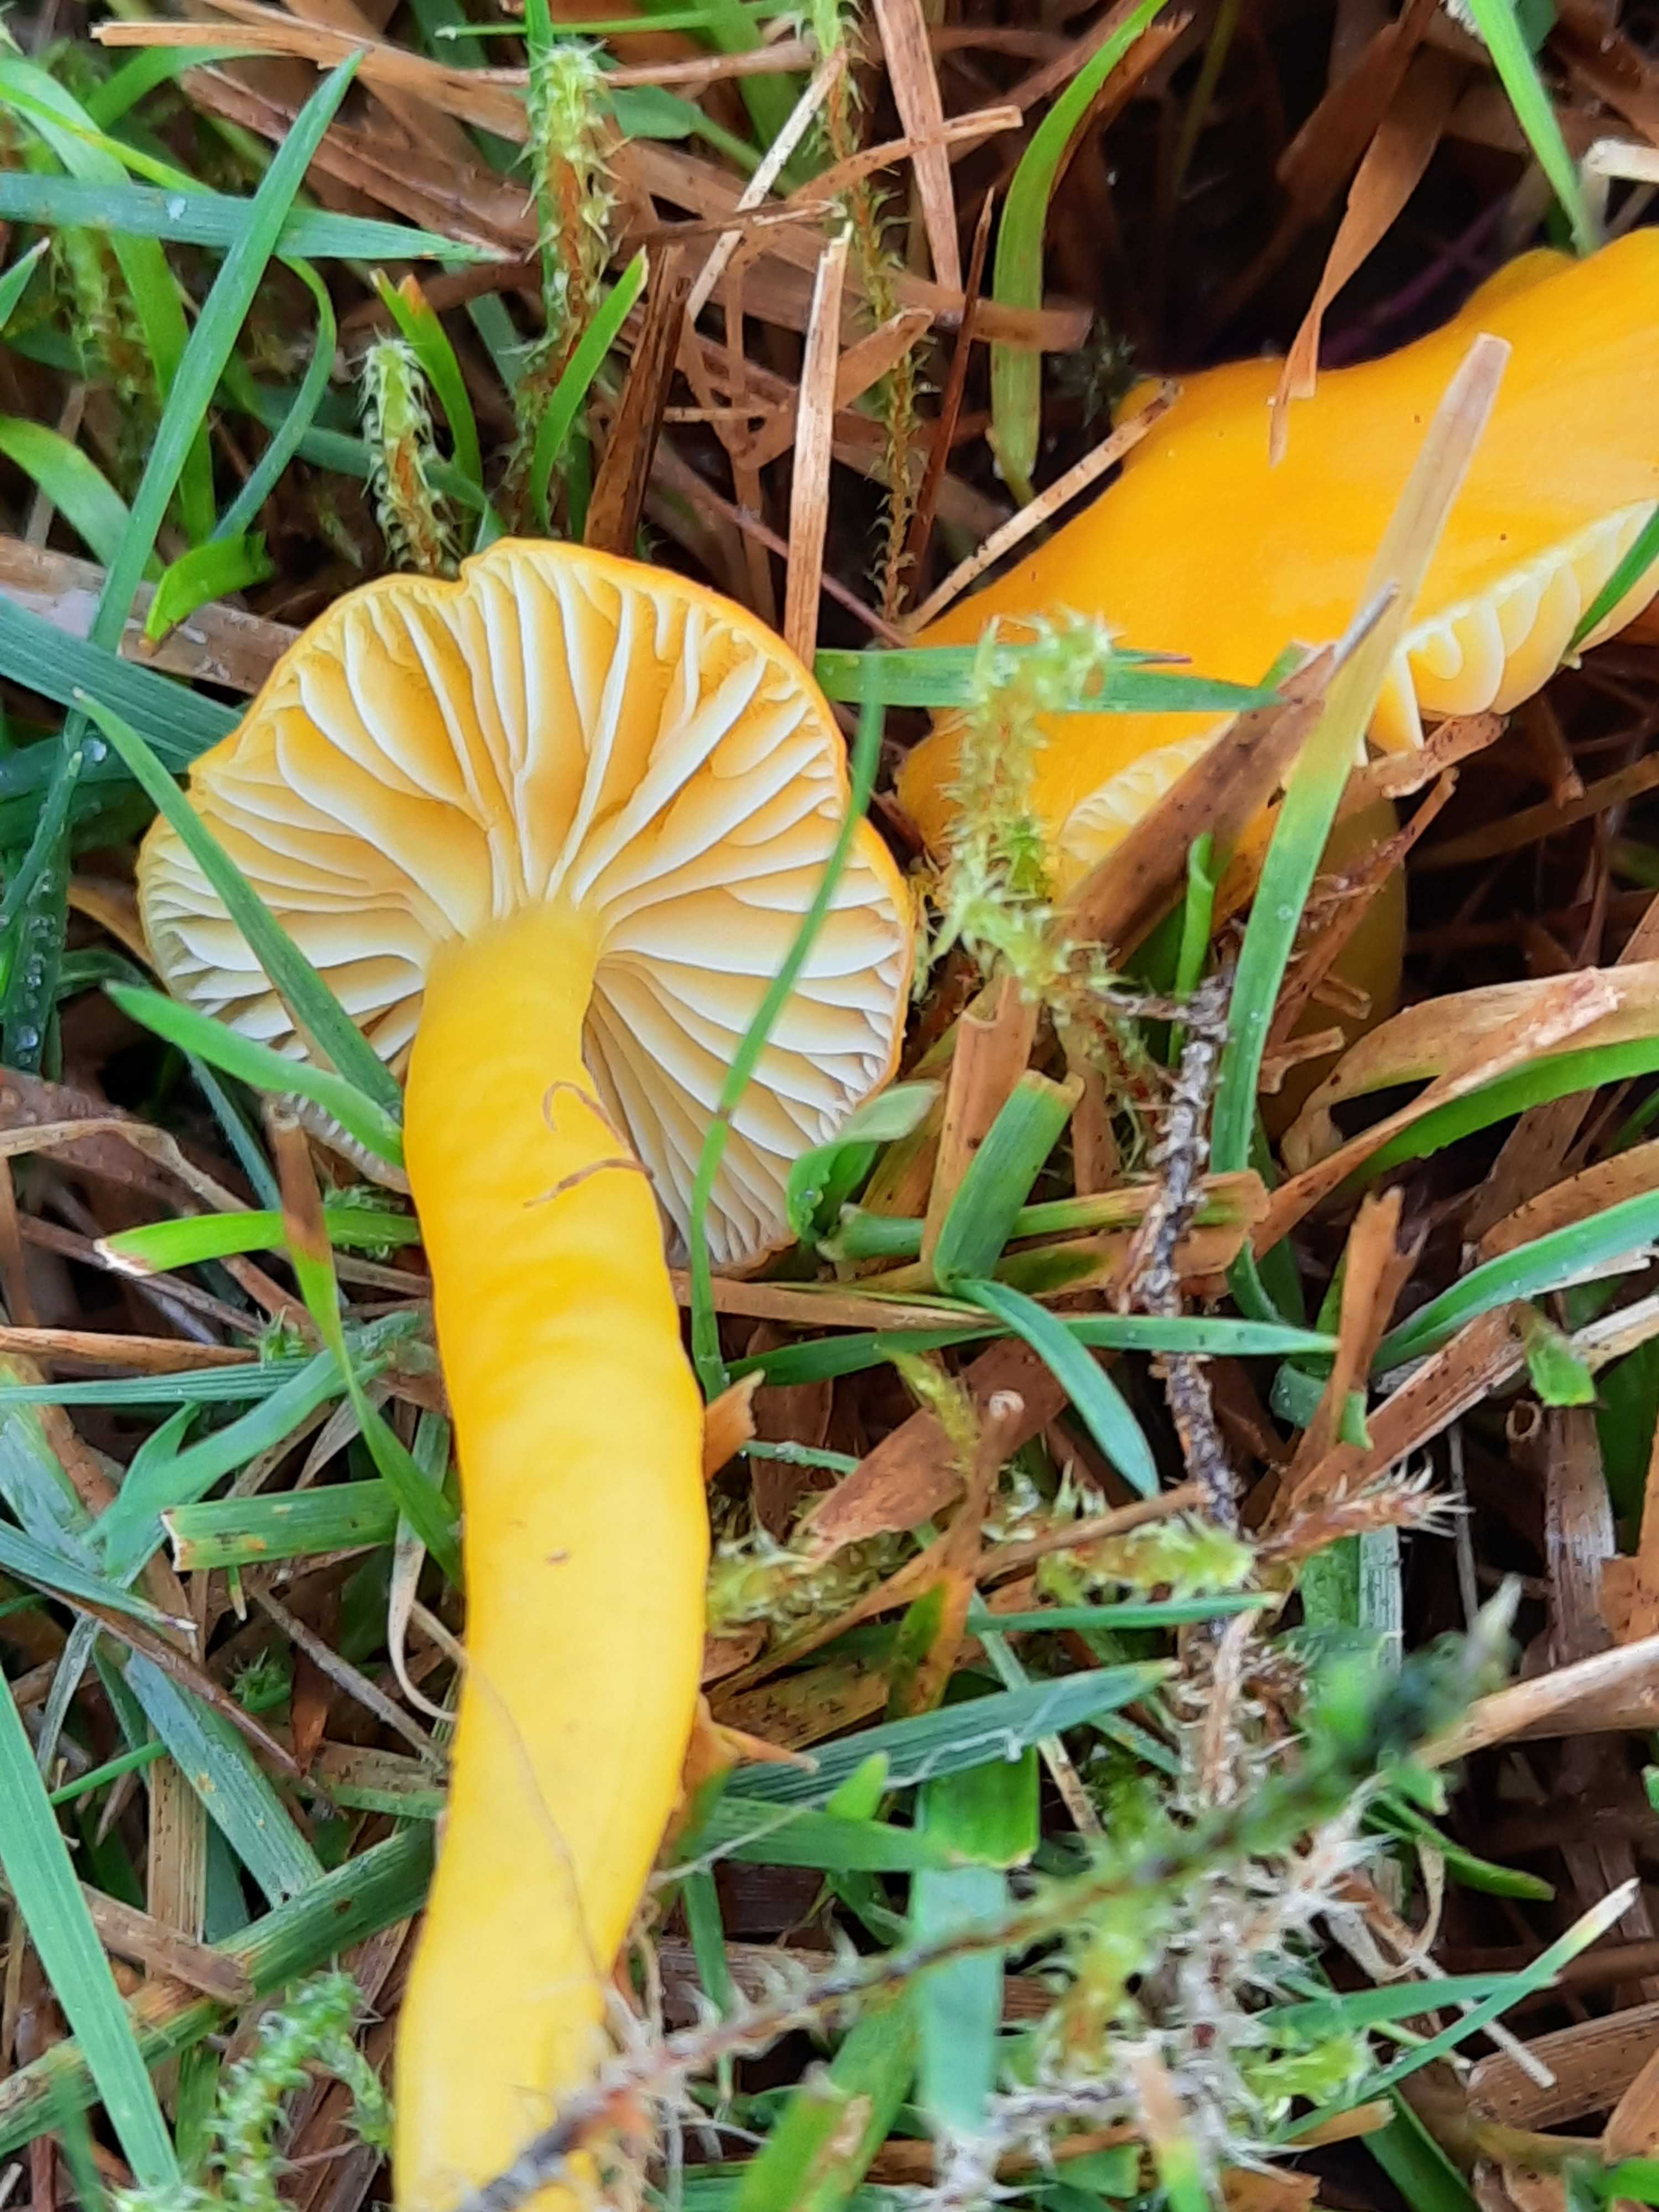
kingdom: Fungi
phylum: Basidiomycota
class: Agaricomycetes
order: Agaricales
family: Hygrophoraceae
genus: Hygrocybe
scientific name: Hygrocybe ceracea
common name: voksgul vokshat
